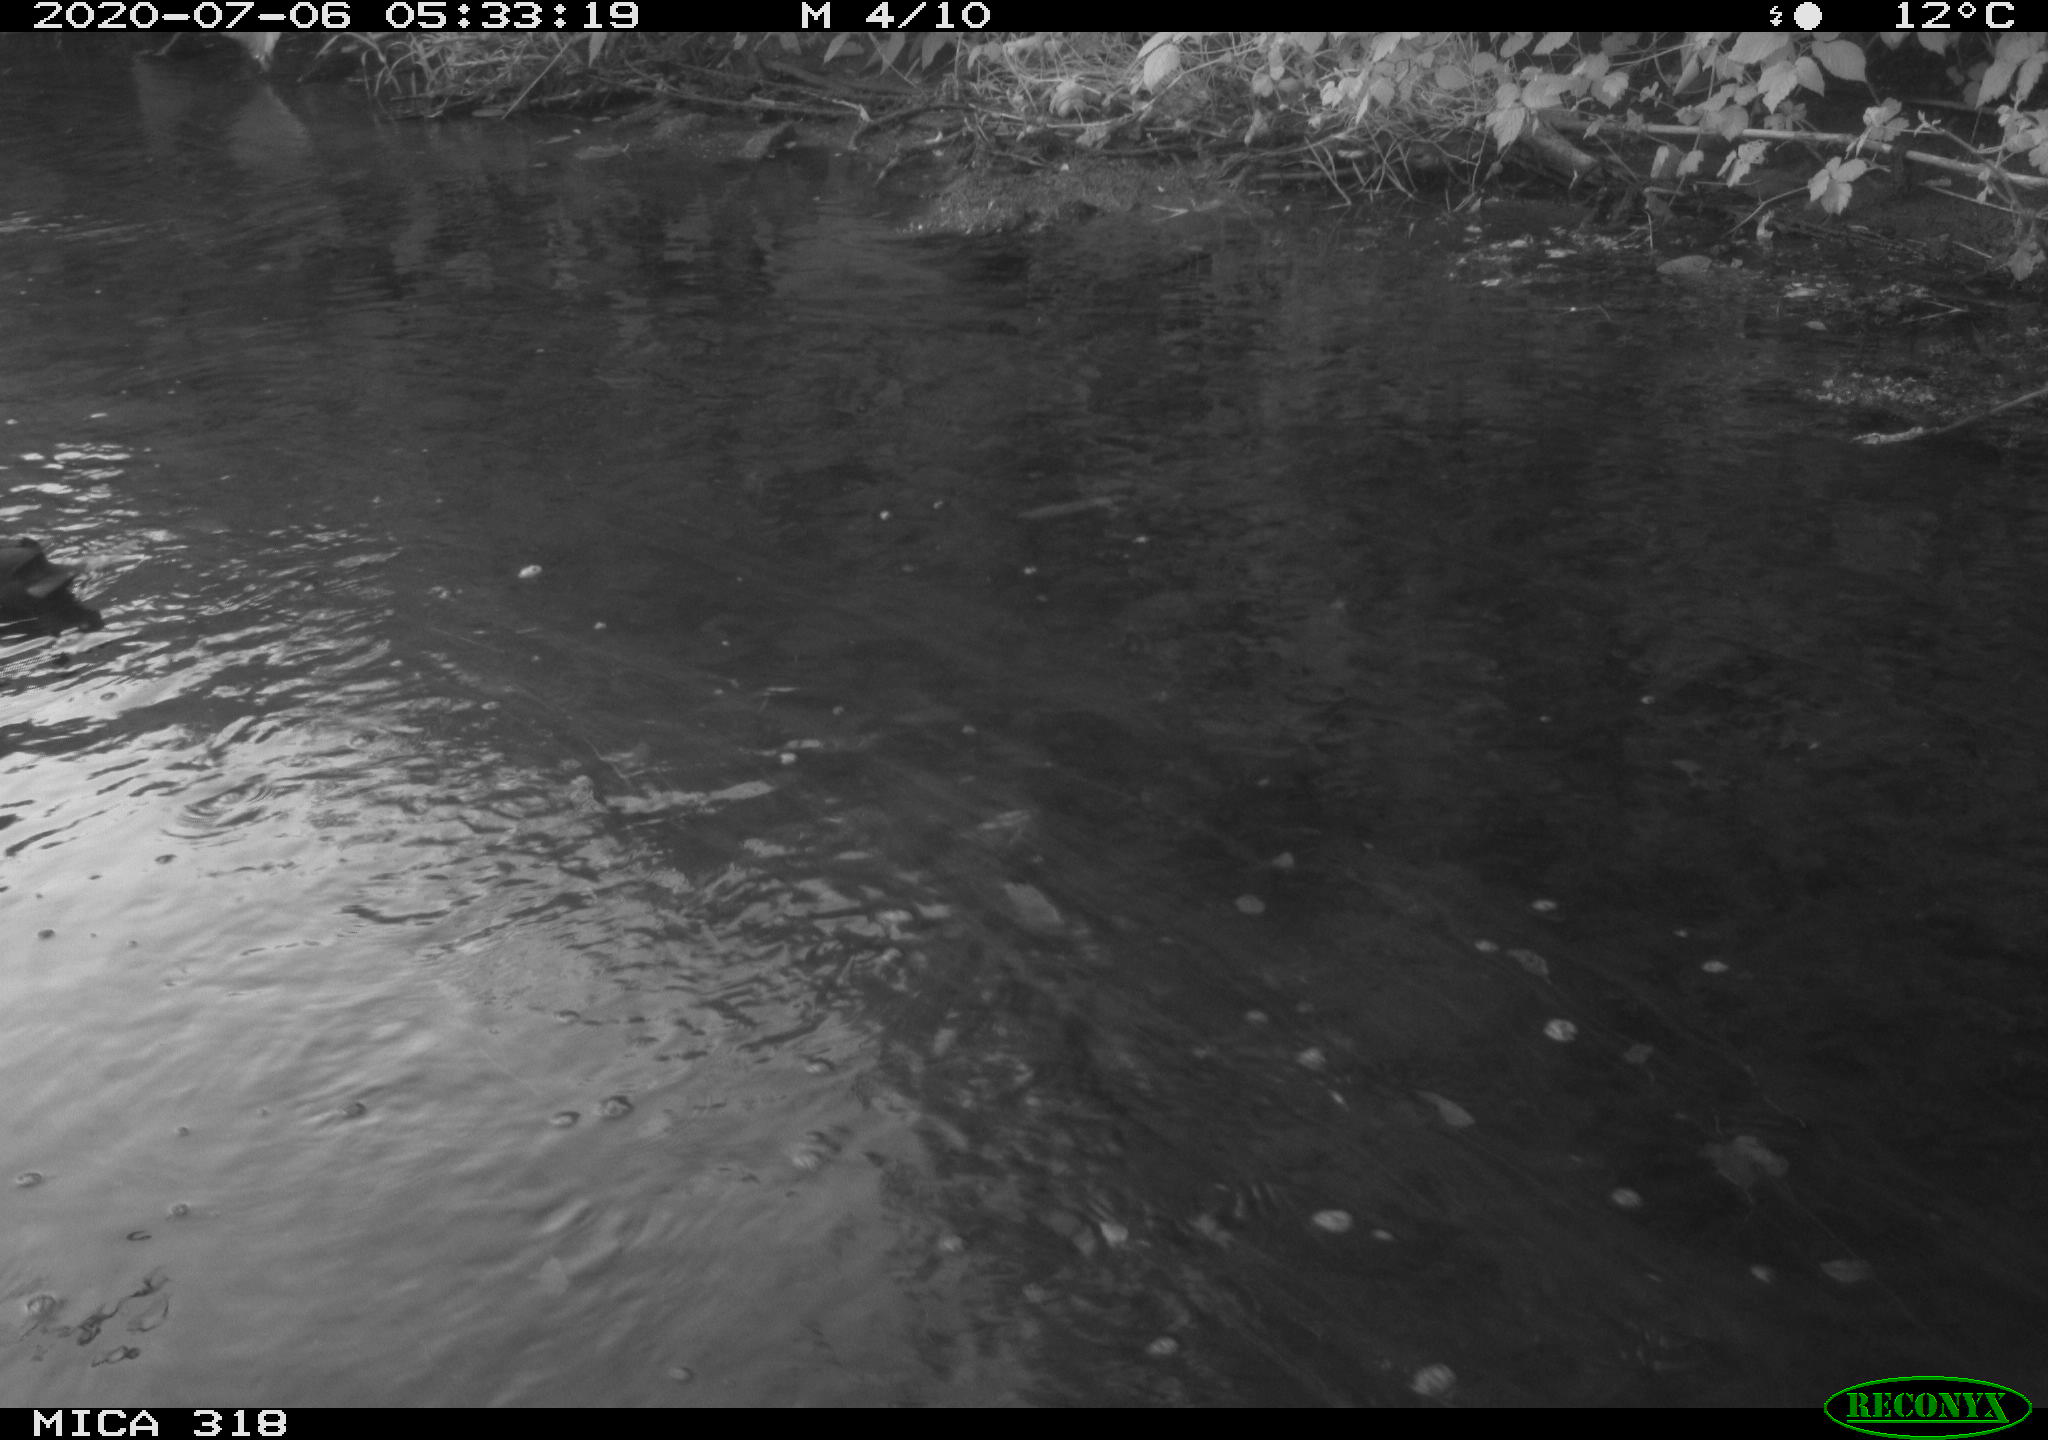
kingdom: Animalia
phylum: Chordata
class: Aves
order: Gruiformes
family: Rallidae
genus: Gallinula
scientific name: Gallinula chloropus
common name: Common moorhen
